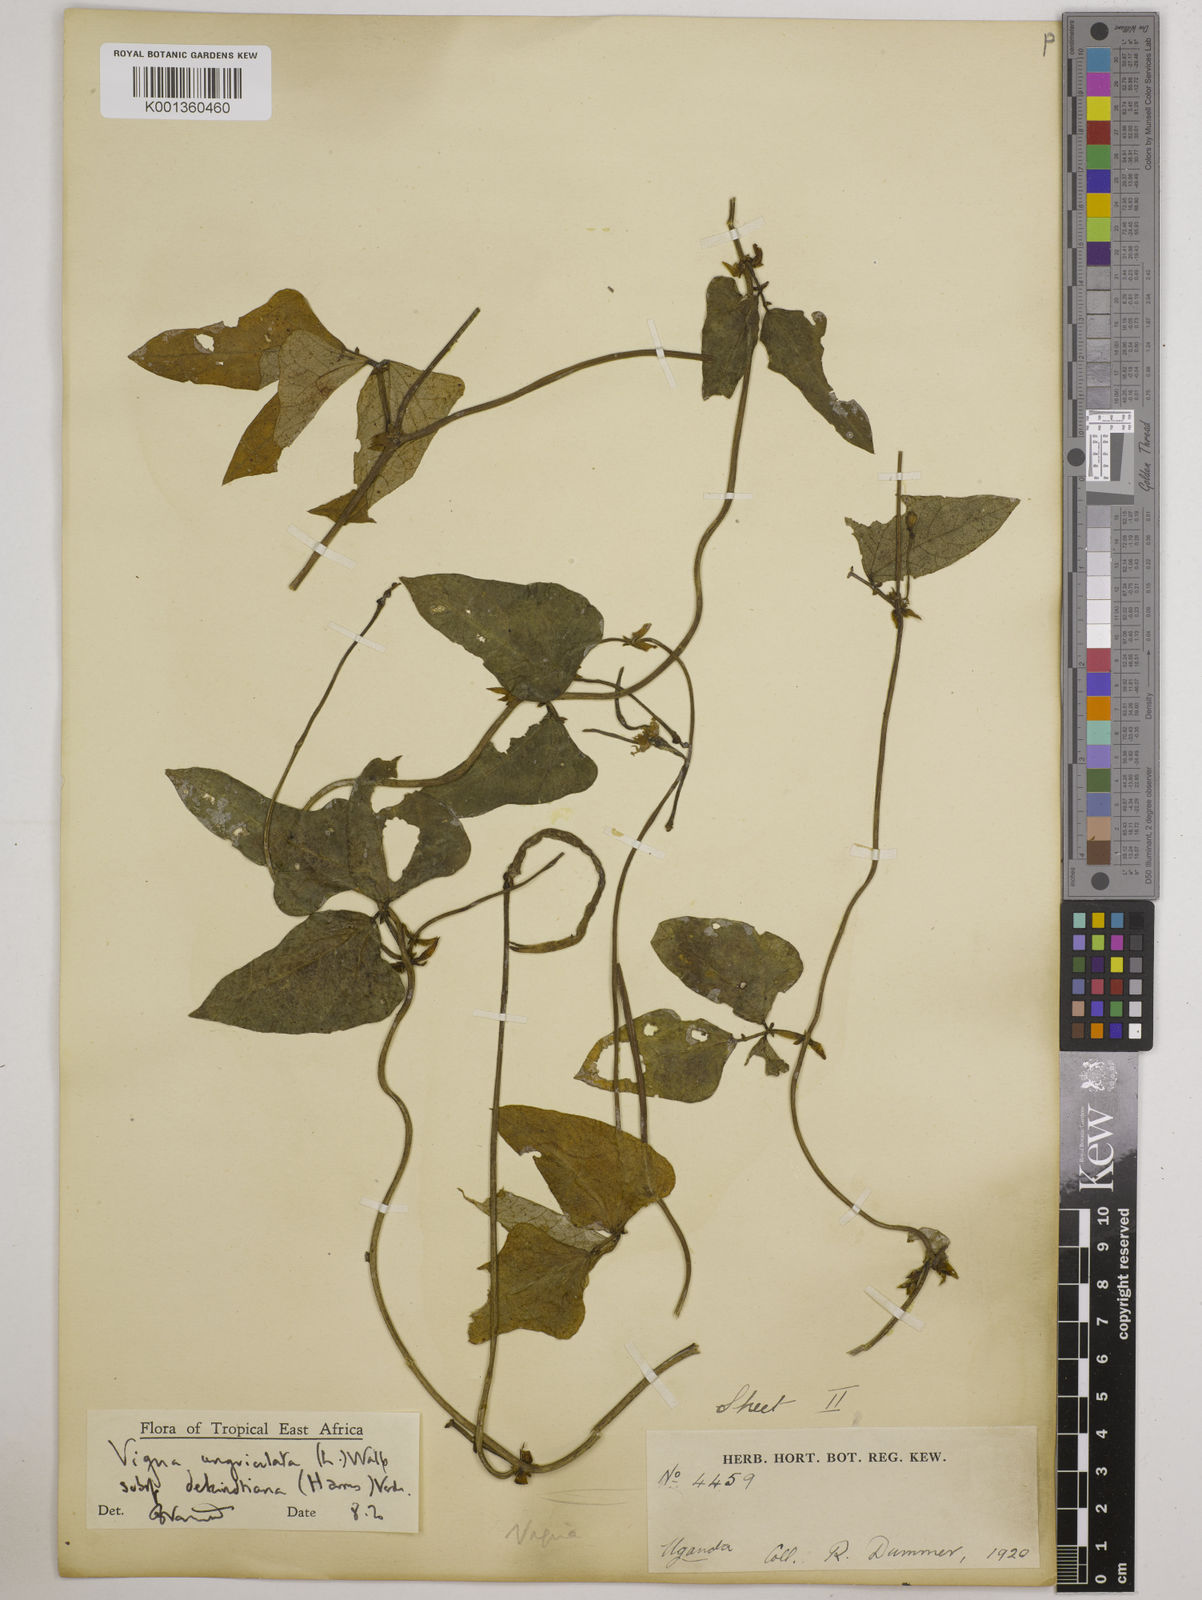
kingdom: Plantae
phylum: Tracheophyta
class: Magnoliopsida
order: Fabales
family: Fabaceae
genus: Vigna
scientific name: Vigna unguiculata
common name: Cowpea
